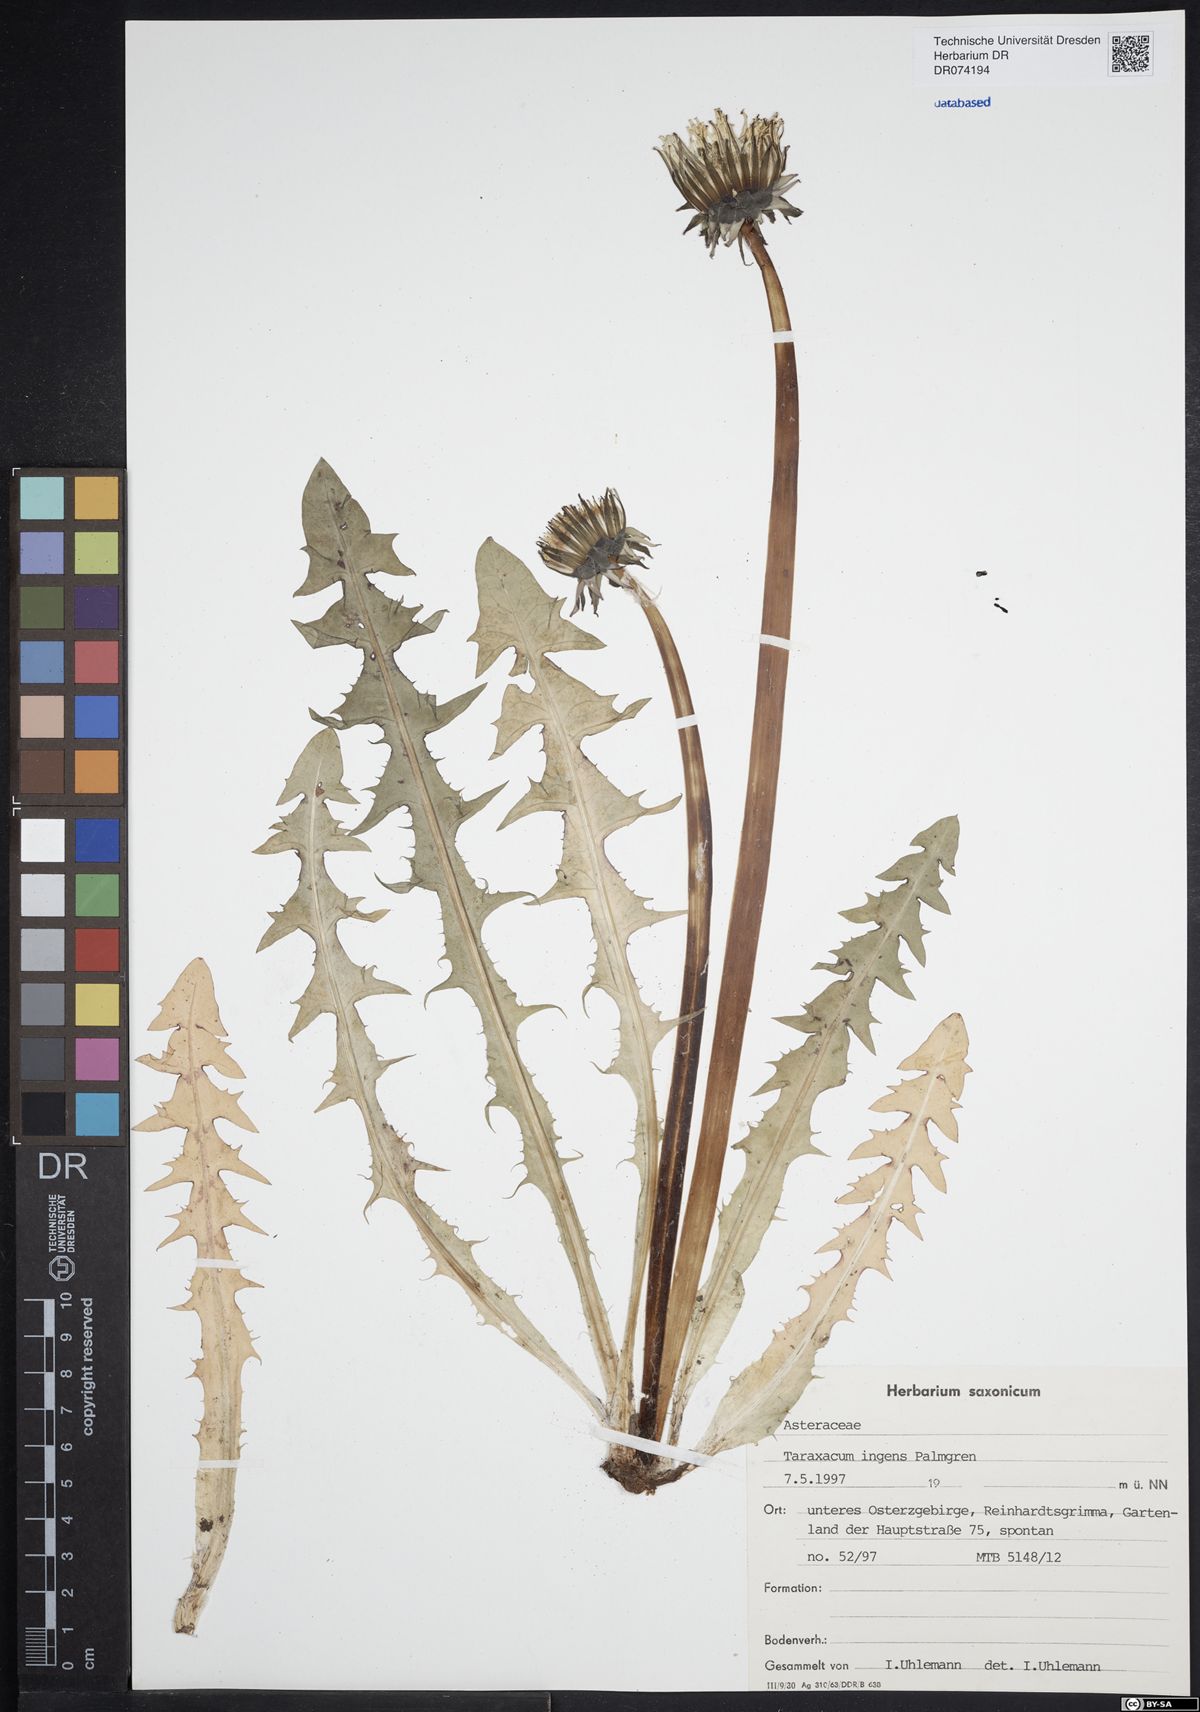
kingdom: Plantae
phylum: Tracheophyta
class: Magnoliopsida
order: Asterales
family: Asteraceae
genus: Taraxacum
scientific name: Taraxacum ingens
